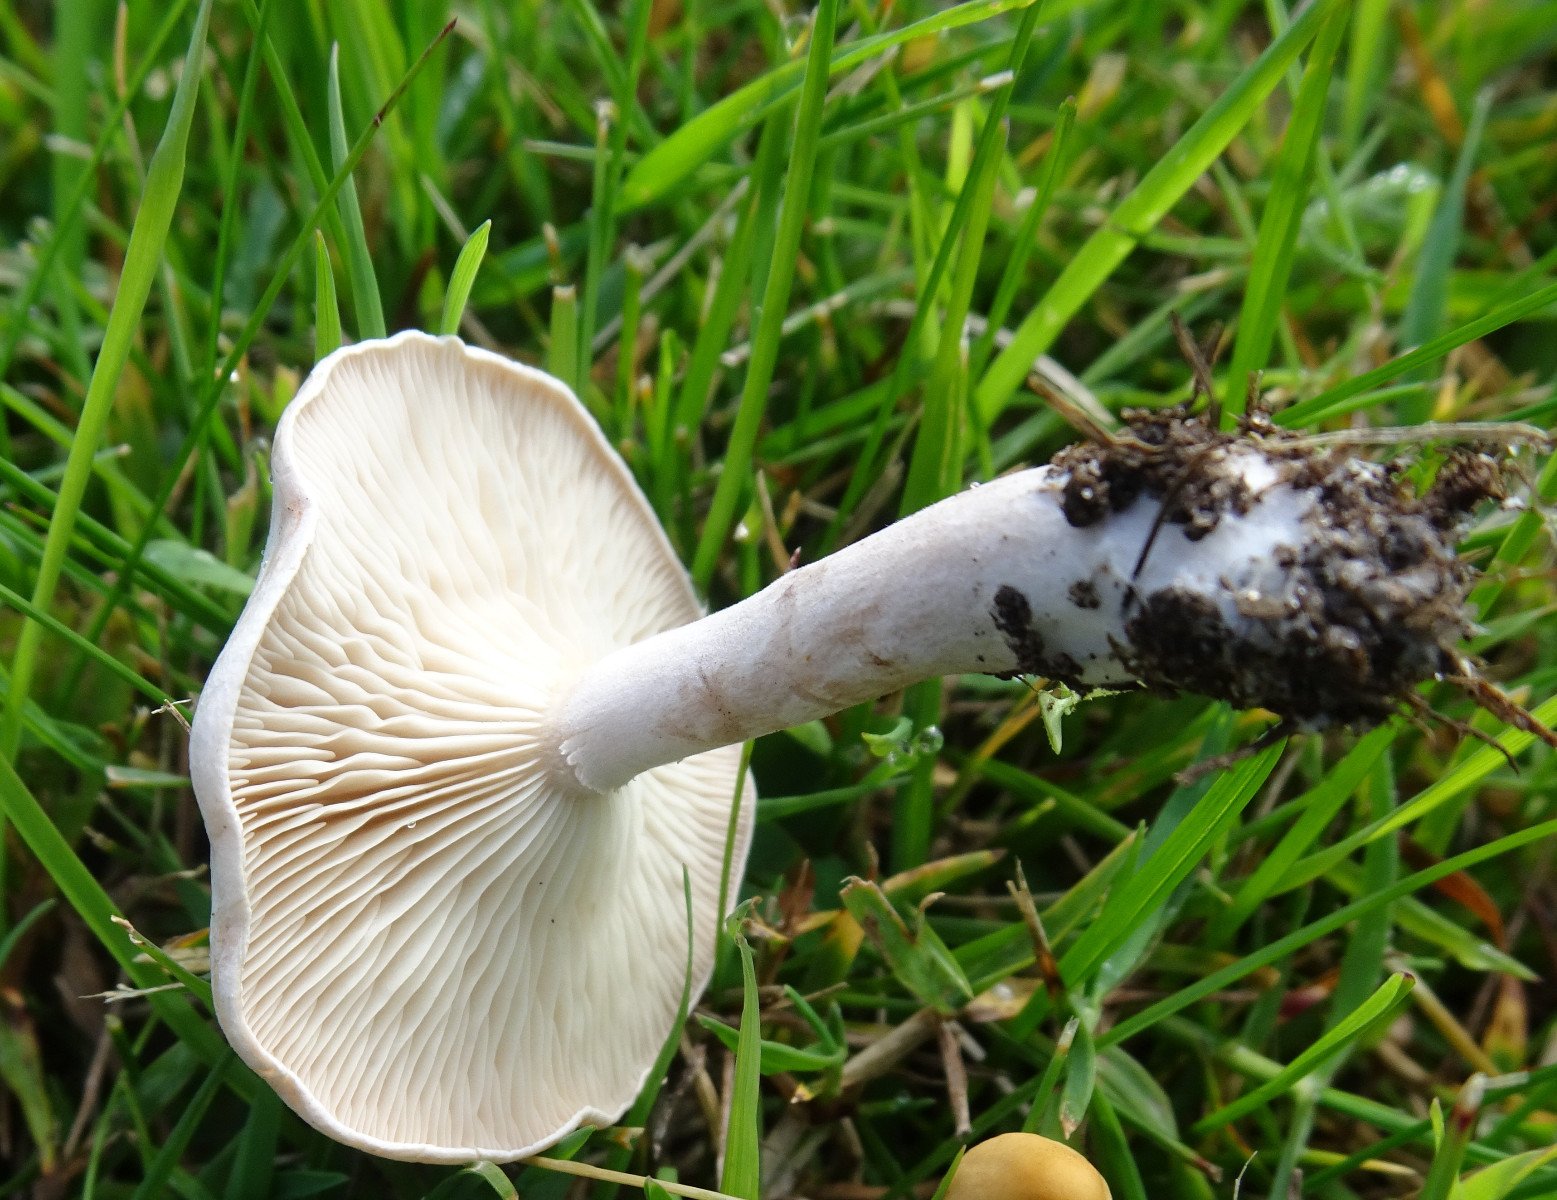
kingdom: Fungi
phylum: Basidiomycota
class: Agaricomycetes
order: Agaricales
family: Tricholomataceae
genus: Clitocybe
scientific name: Clitocybe
